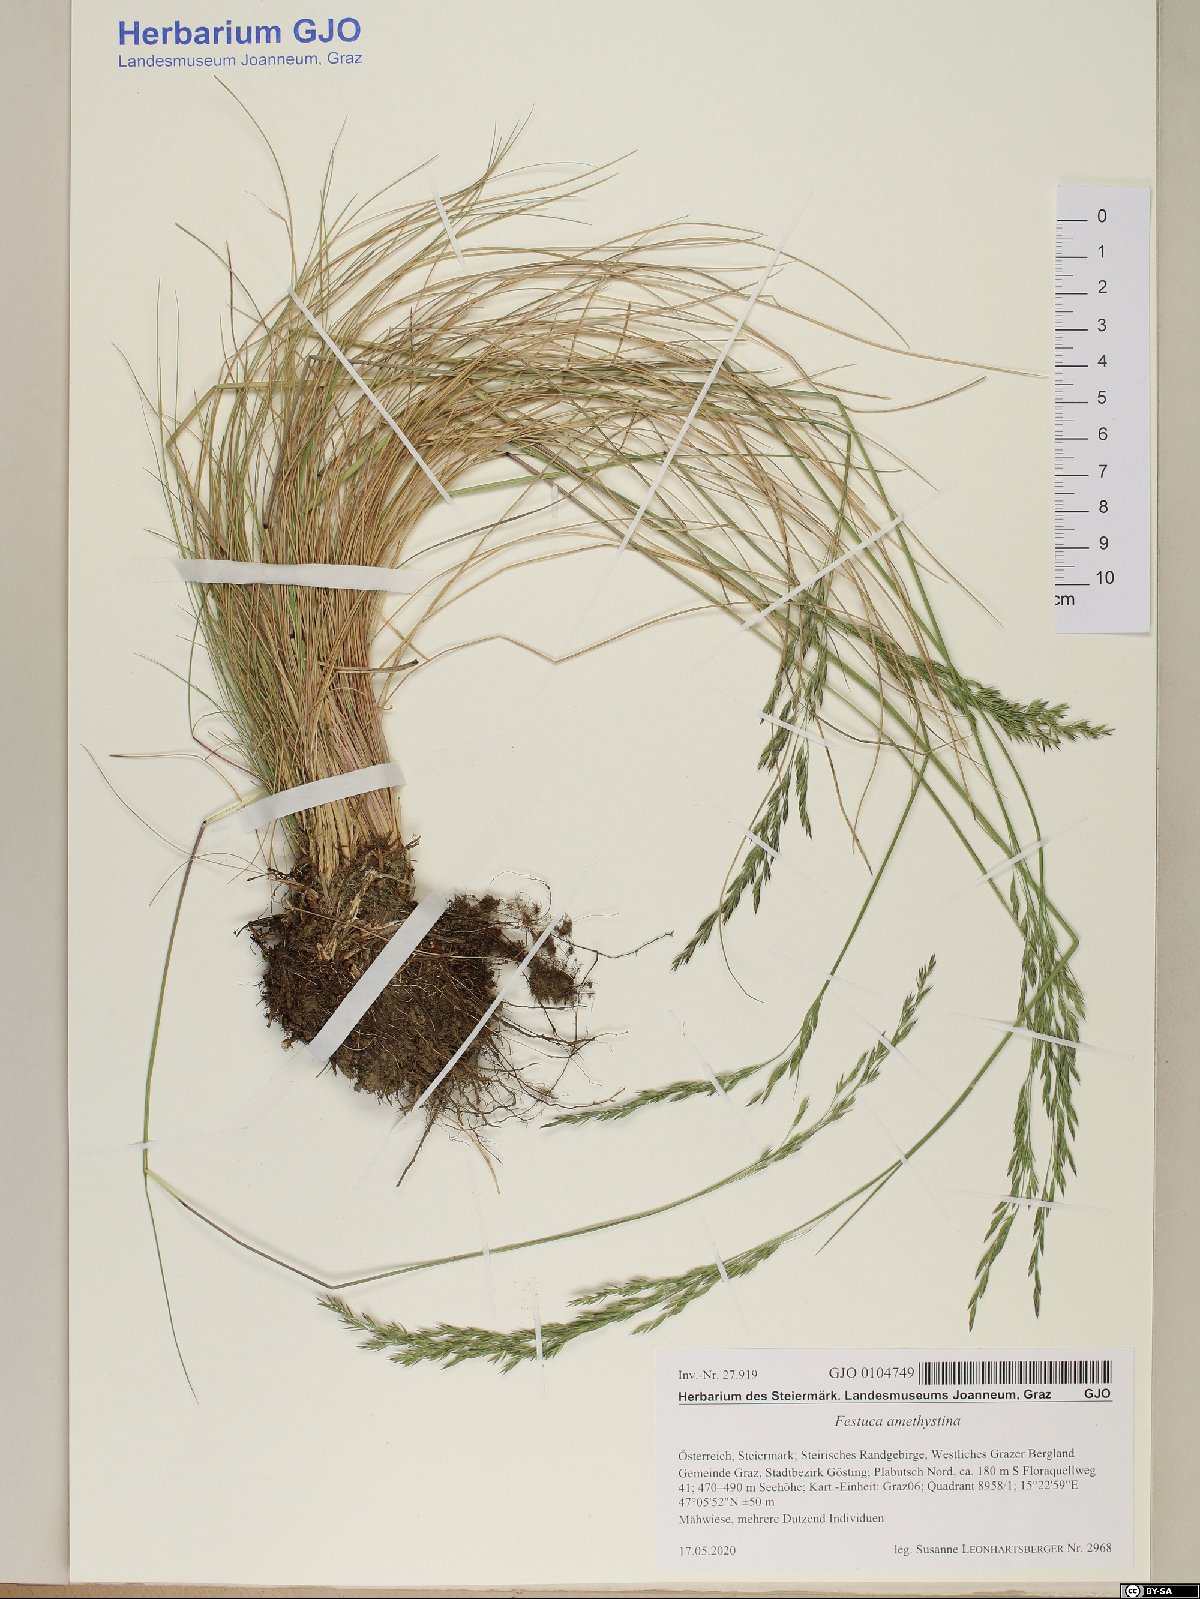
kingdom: Plantae
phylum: Tracheophyta
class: Liliopsida
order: Poales
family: Poaceae
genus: Festuca
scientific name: Festuca amethystina
